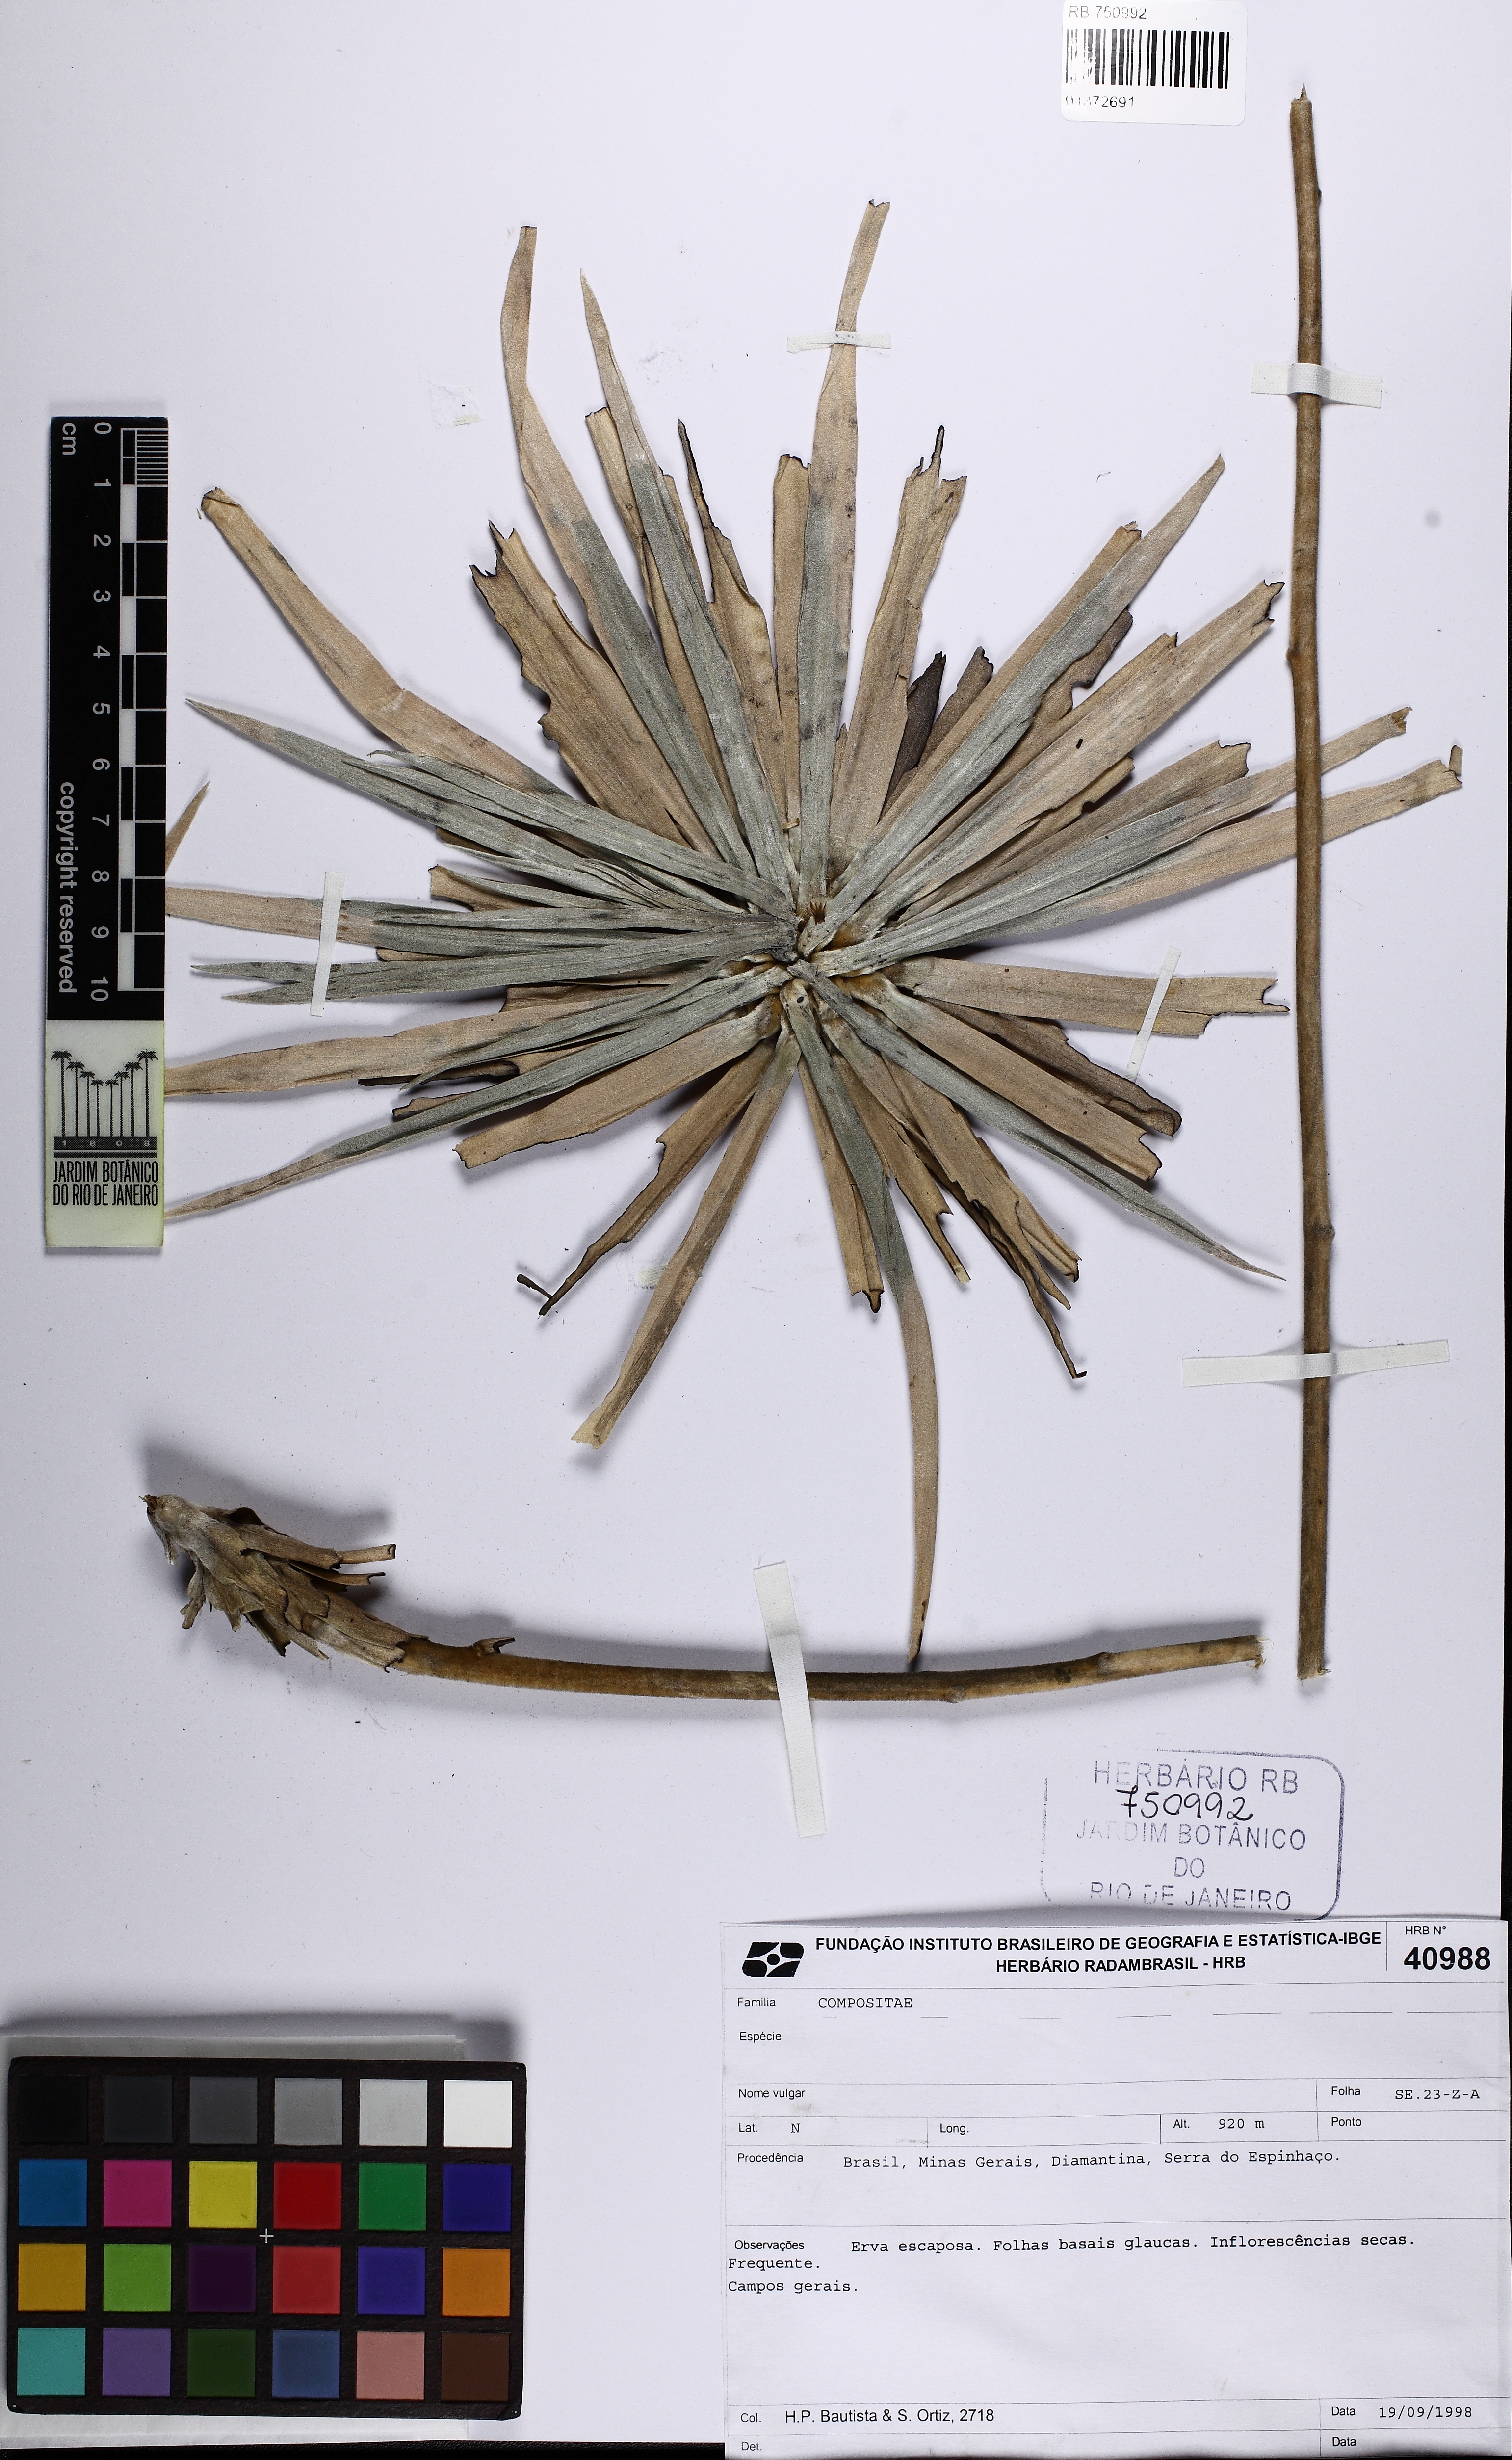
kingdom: Plantae
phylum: Tracheophyta
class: Magnoliopsida
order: Asterales
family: Asteraceae
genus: Minasia
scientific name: Minasia
